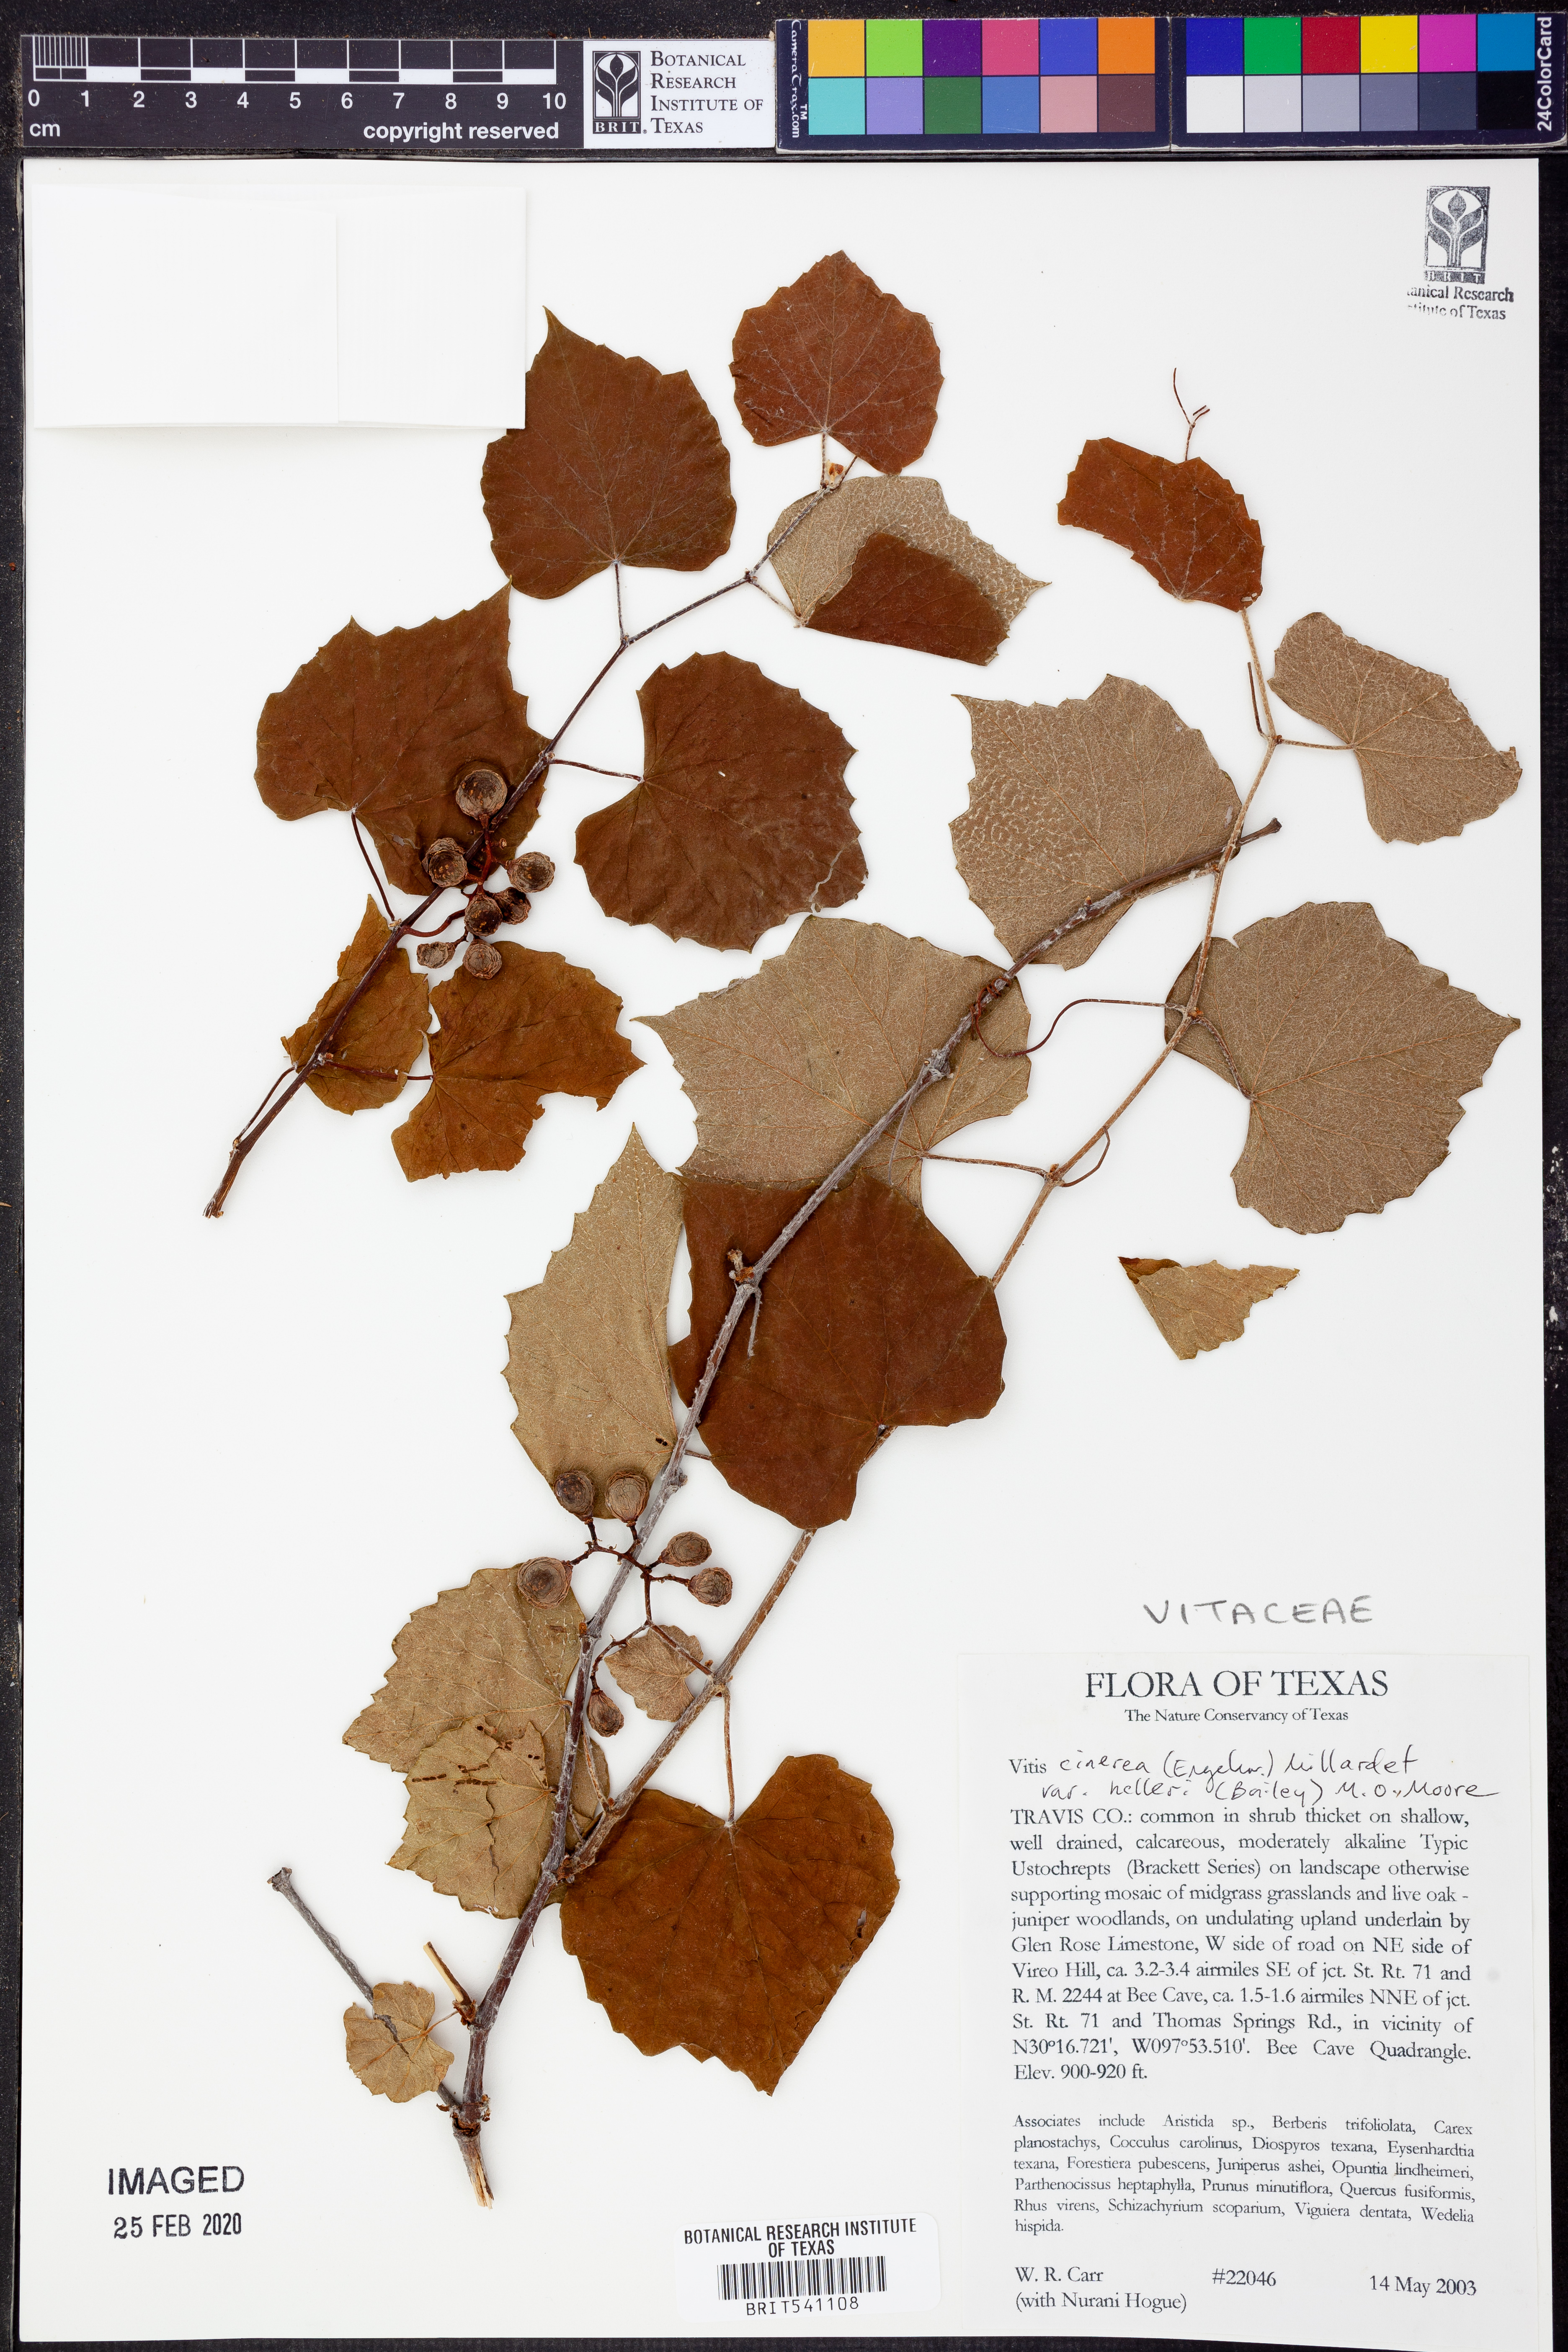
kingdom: Plantae
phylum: Tracheophyta
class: Magnoliopsida
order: Vitales
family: Vitaceae
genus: Vitis
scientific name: Vitis cinerea
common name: Ashy grape
